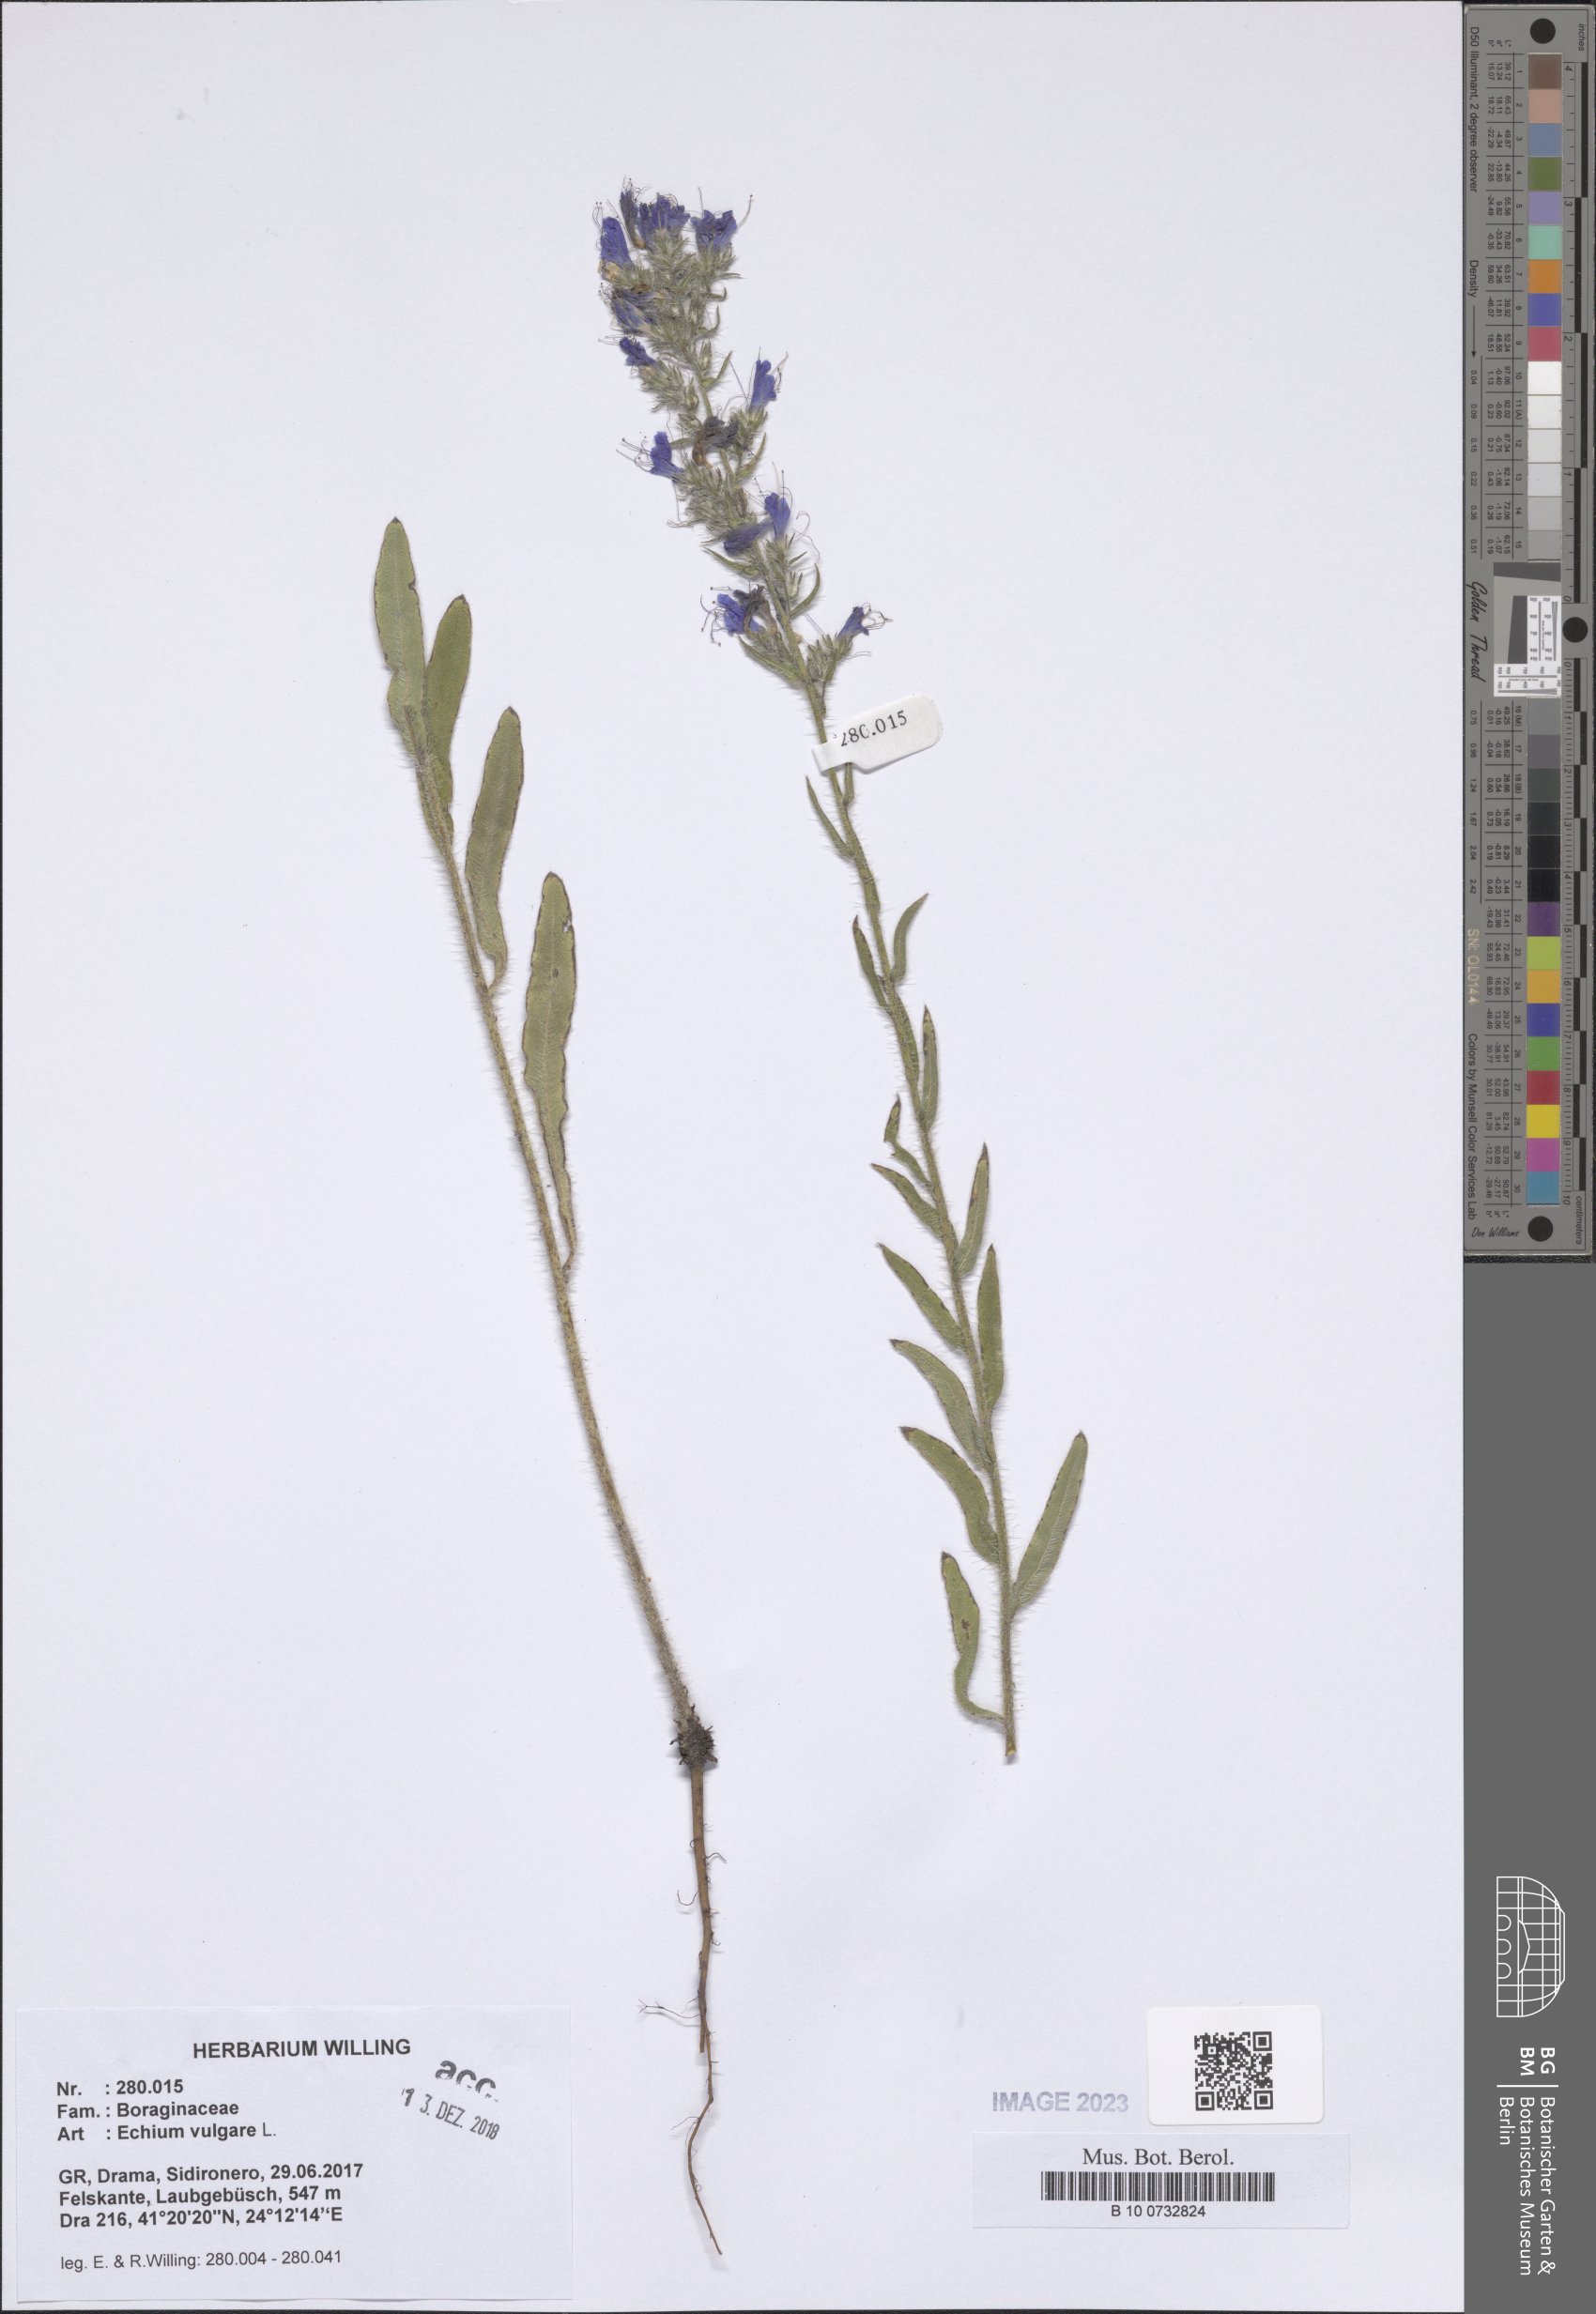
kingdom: Plantae
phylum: Tracheophyta
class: Magnoliopsida
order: Boraginales
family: Boraginaceae
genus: Echium
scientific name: Echium vulgare
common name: Common viper's bugloss
